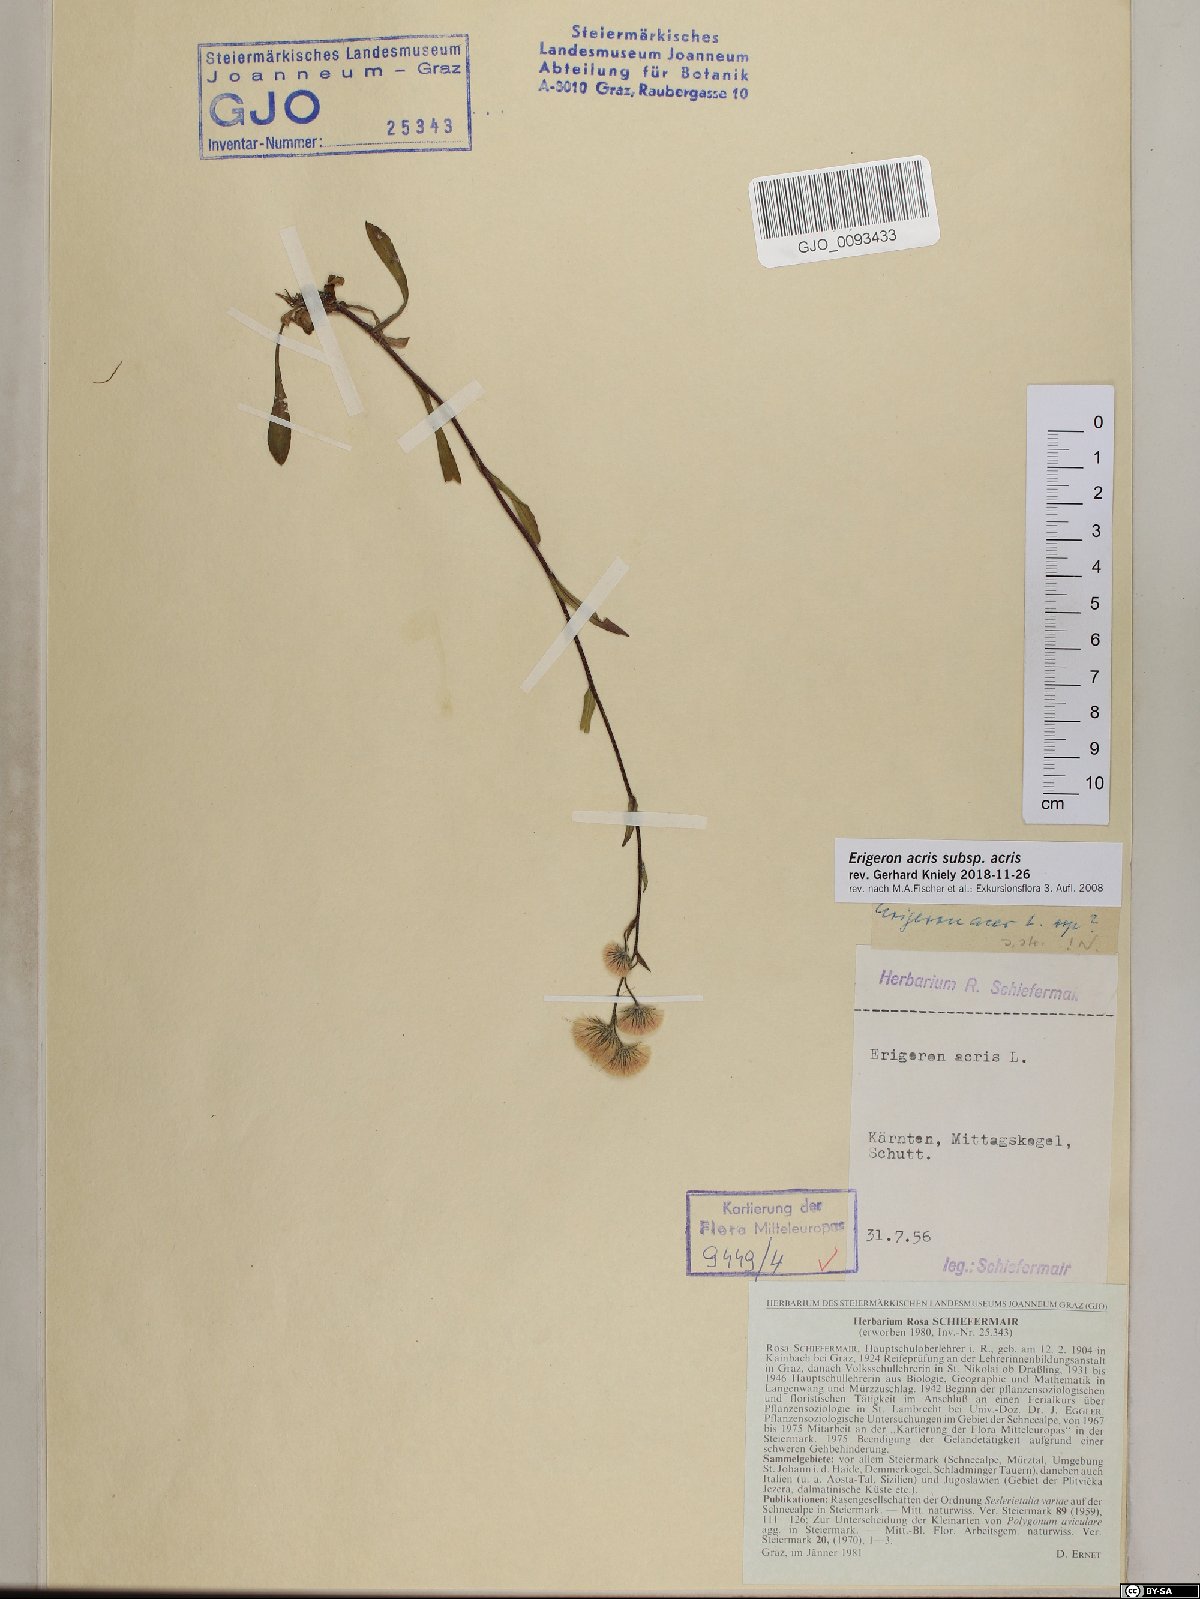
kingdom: Plantae
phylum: Tracheophyta
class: Magnoliopsida
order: Asterales
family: Asteraceae
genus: Erigeron
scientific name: Erigeron acris
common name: Blue fleabane
